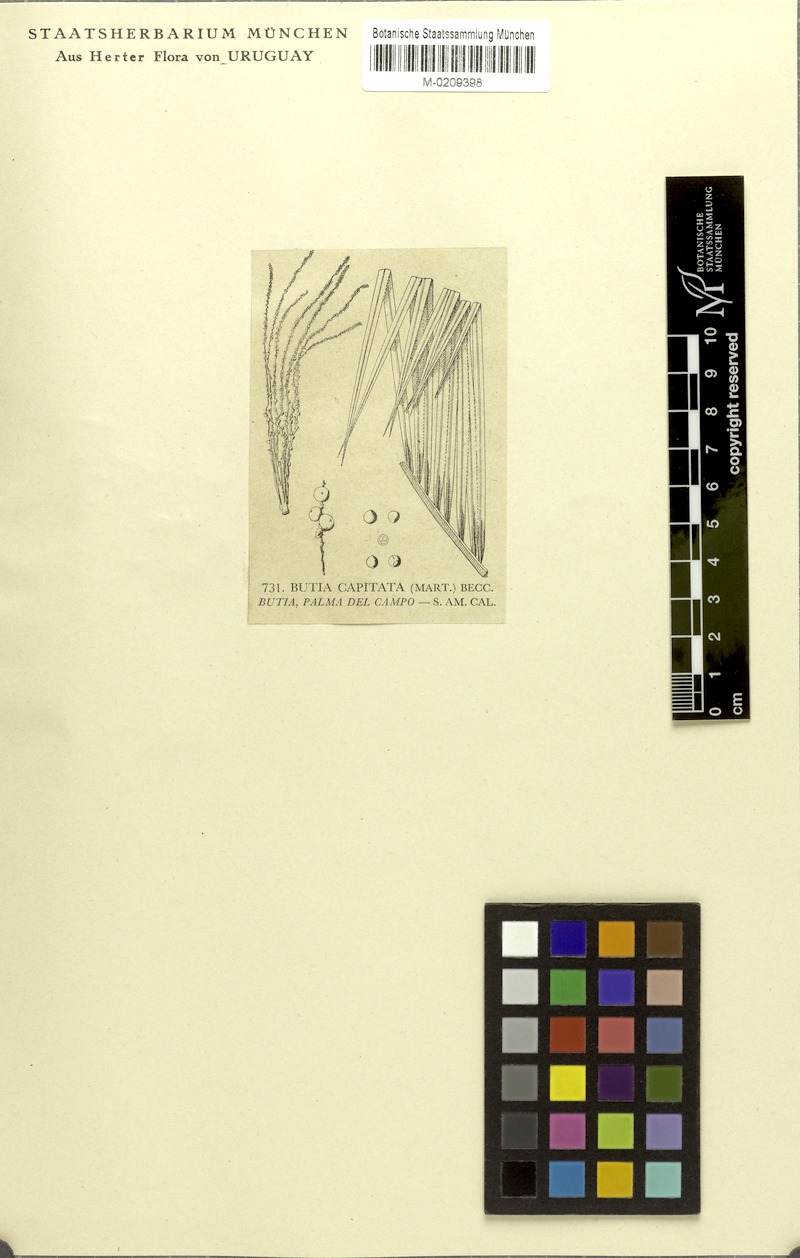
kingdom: Plantae
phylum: Tracheophyta
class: Liliopsida
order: Arecales
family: Arecaceae
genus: Butia
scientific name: Butia capitata
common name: South american jelly palm
